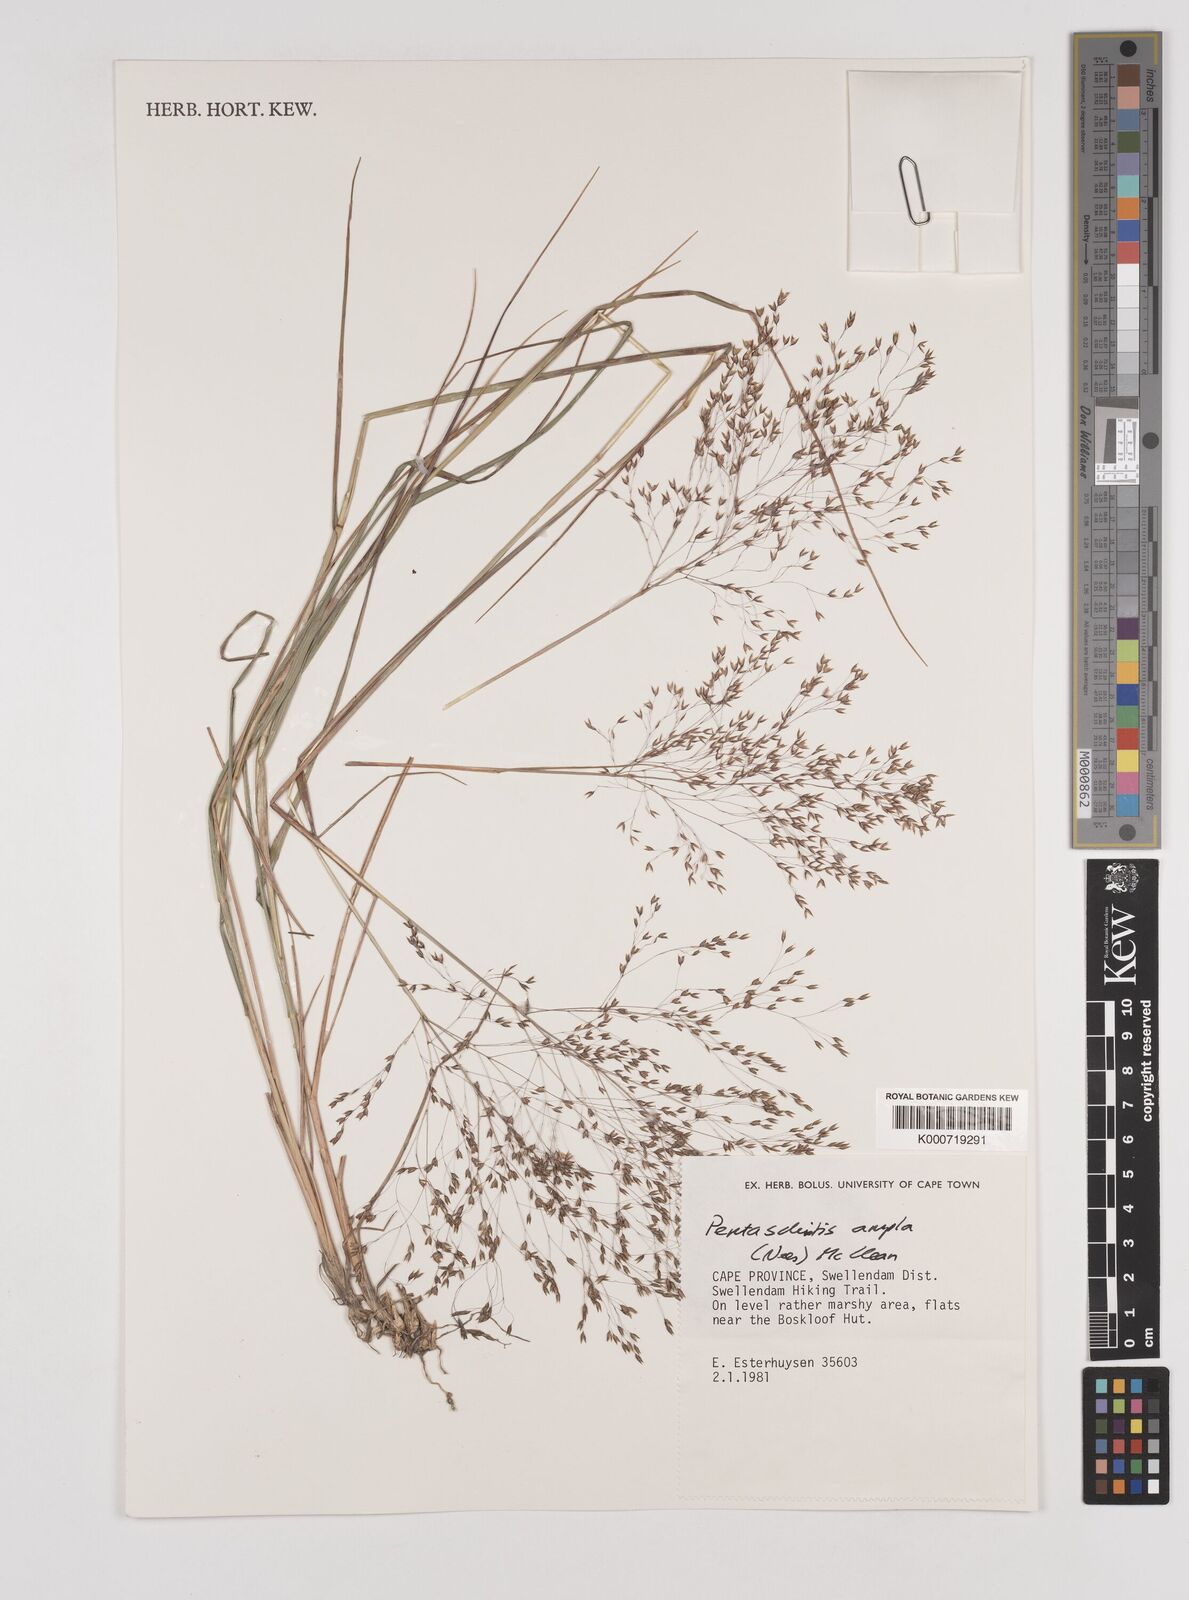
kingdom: Plantae
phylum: Tracheophyta
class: Liliopsida
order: Poales
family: Poaceae
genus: Pentameris
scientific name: Pentameris ampla
